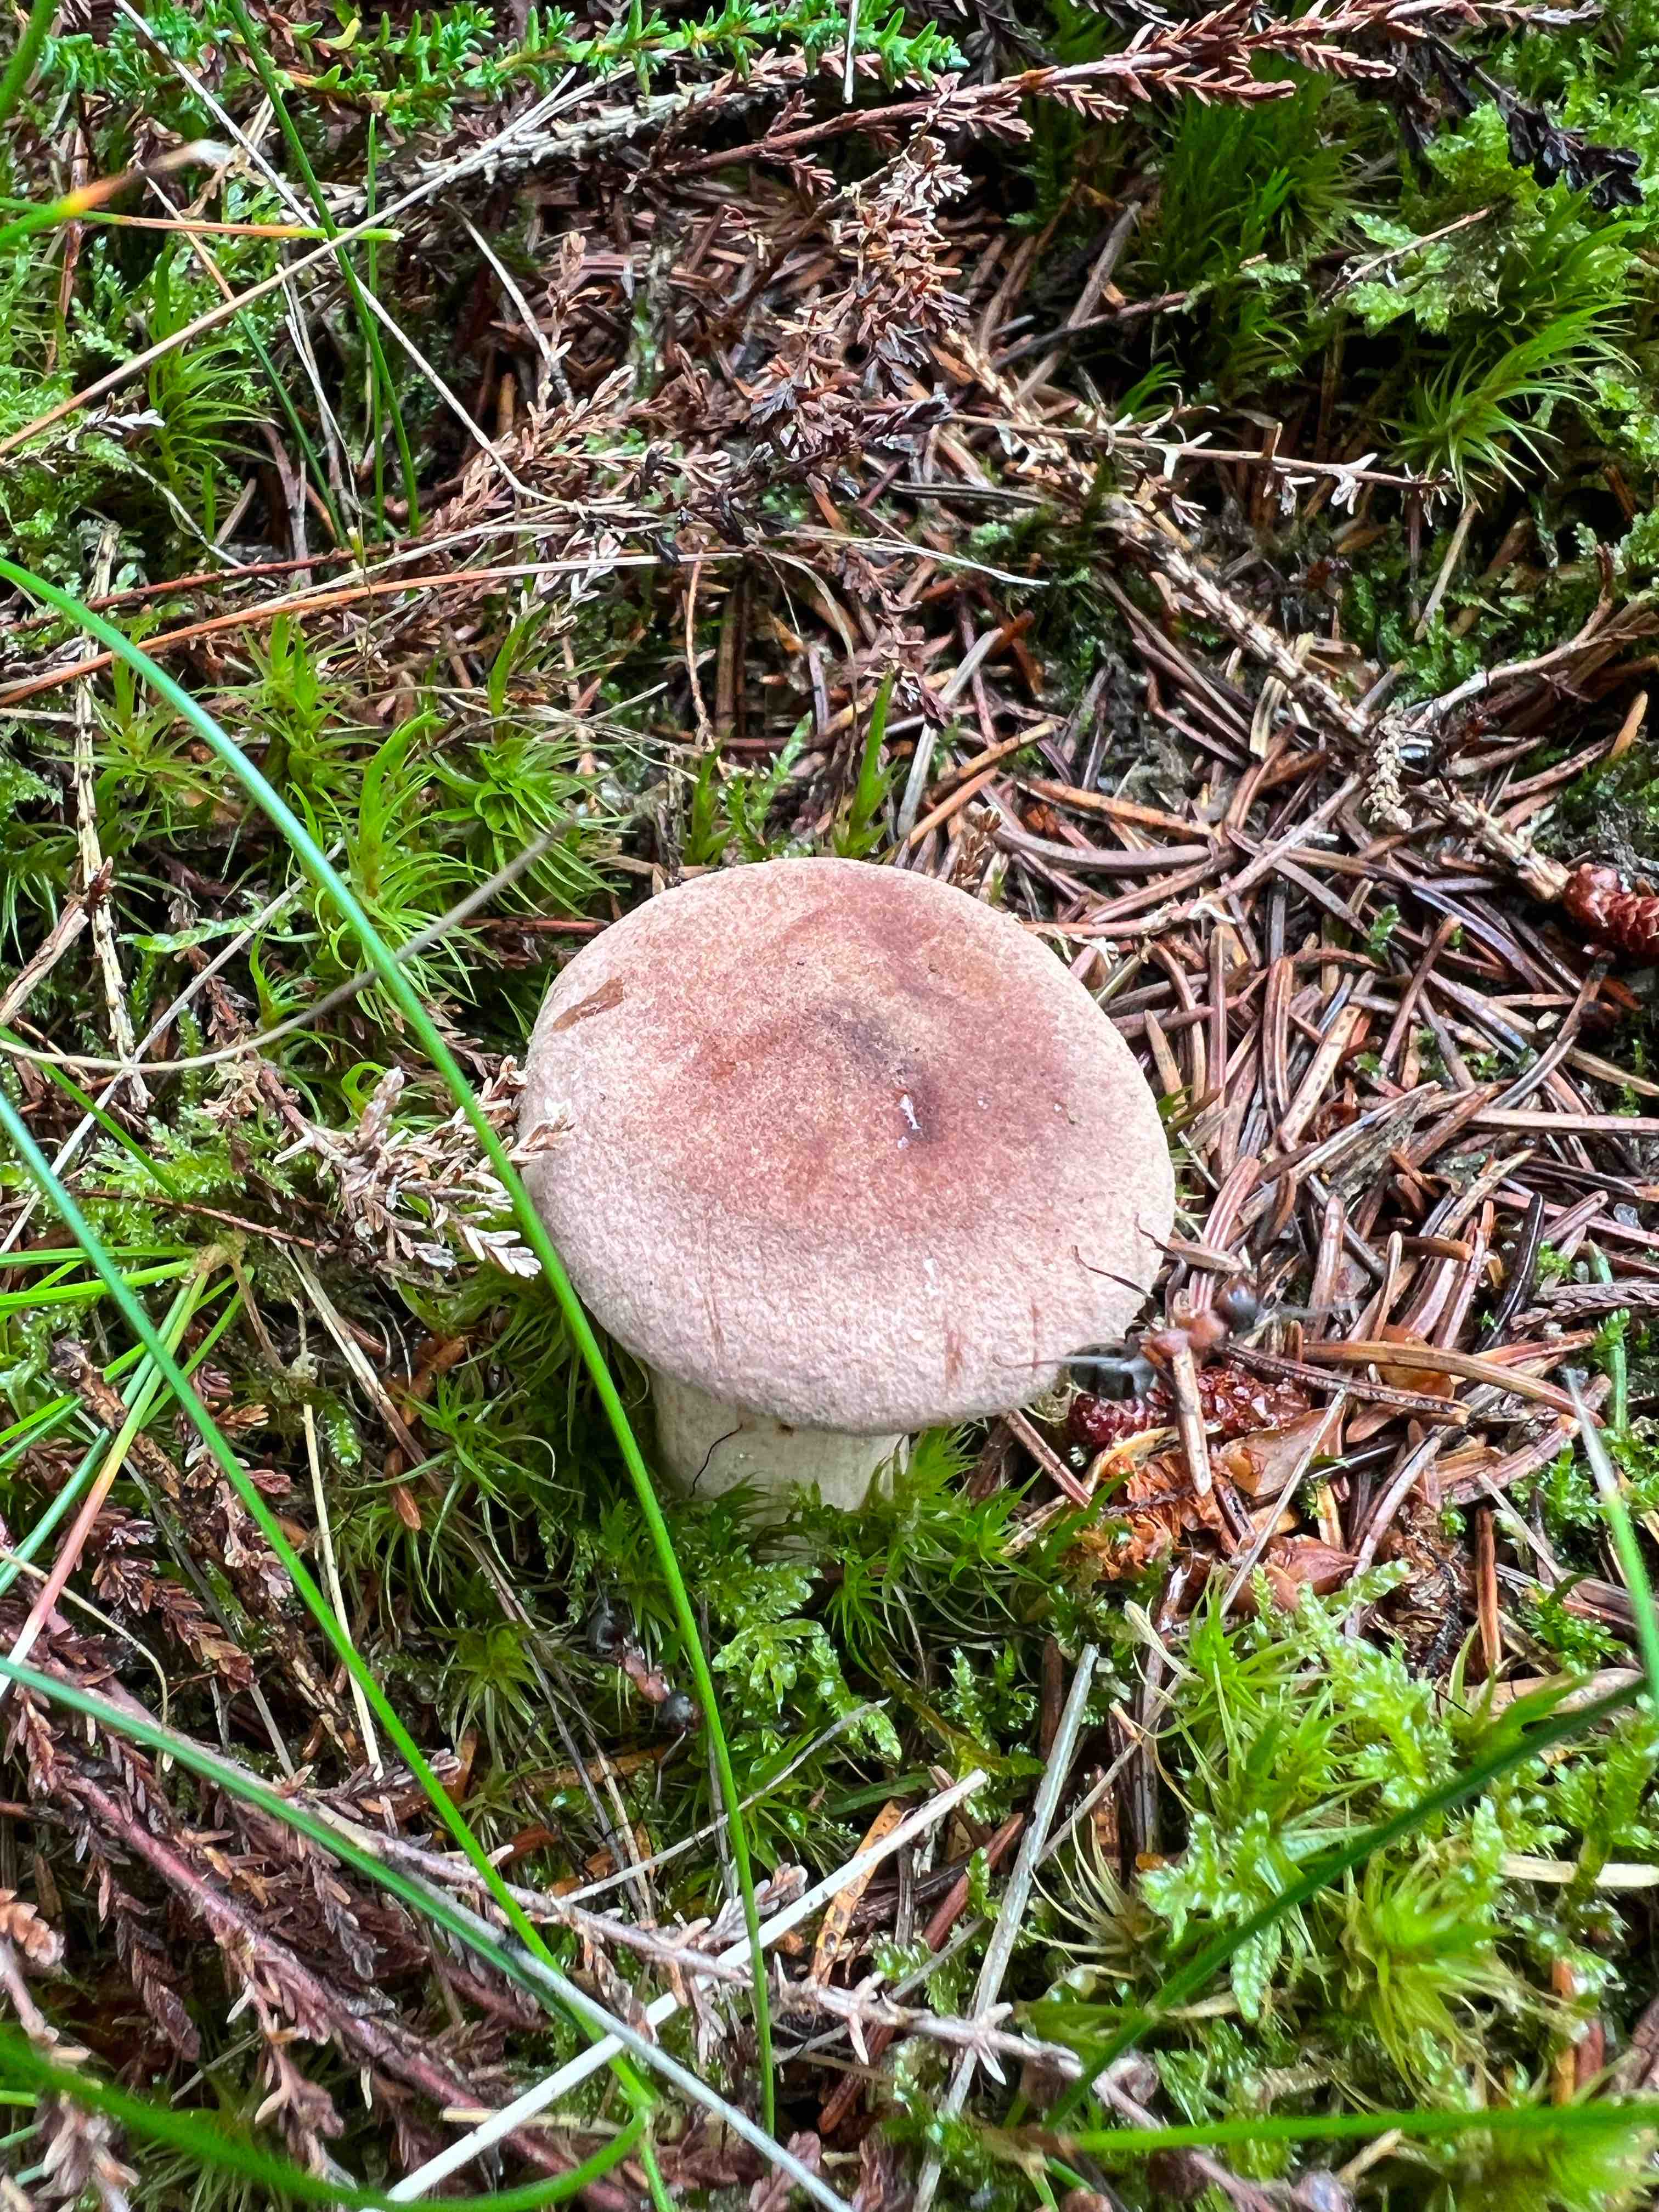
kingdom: Fungi
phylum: Basidiomycota
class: Agaricomycetes
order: Russulales
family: Russulaceae
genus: Lactarius
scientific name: Lactarius helvus
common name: mose-mælkehat
